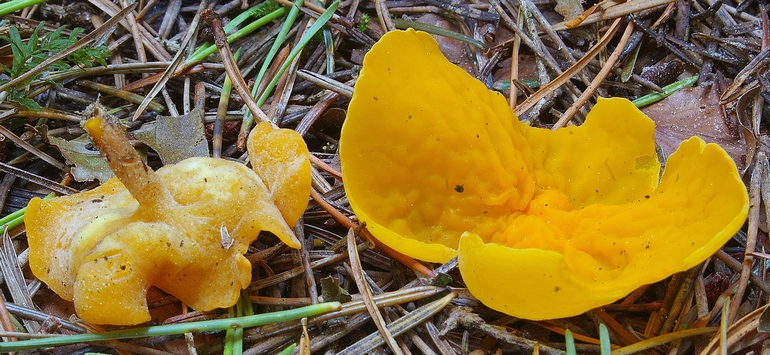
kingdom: Fungi
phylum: Ascomycota
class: Pezizomycetes
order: Pezizales
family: Pyronemataceae
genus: Sowerbyella
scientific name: Sowerbyella imperialis
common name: æggegul rodbæger
